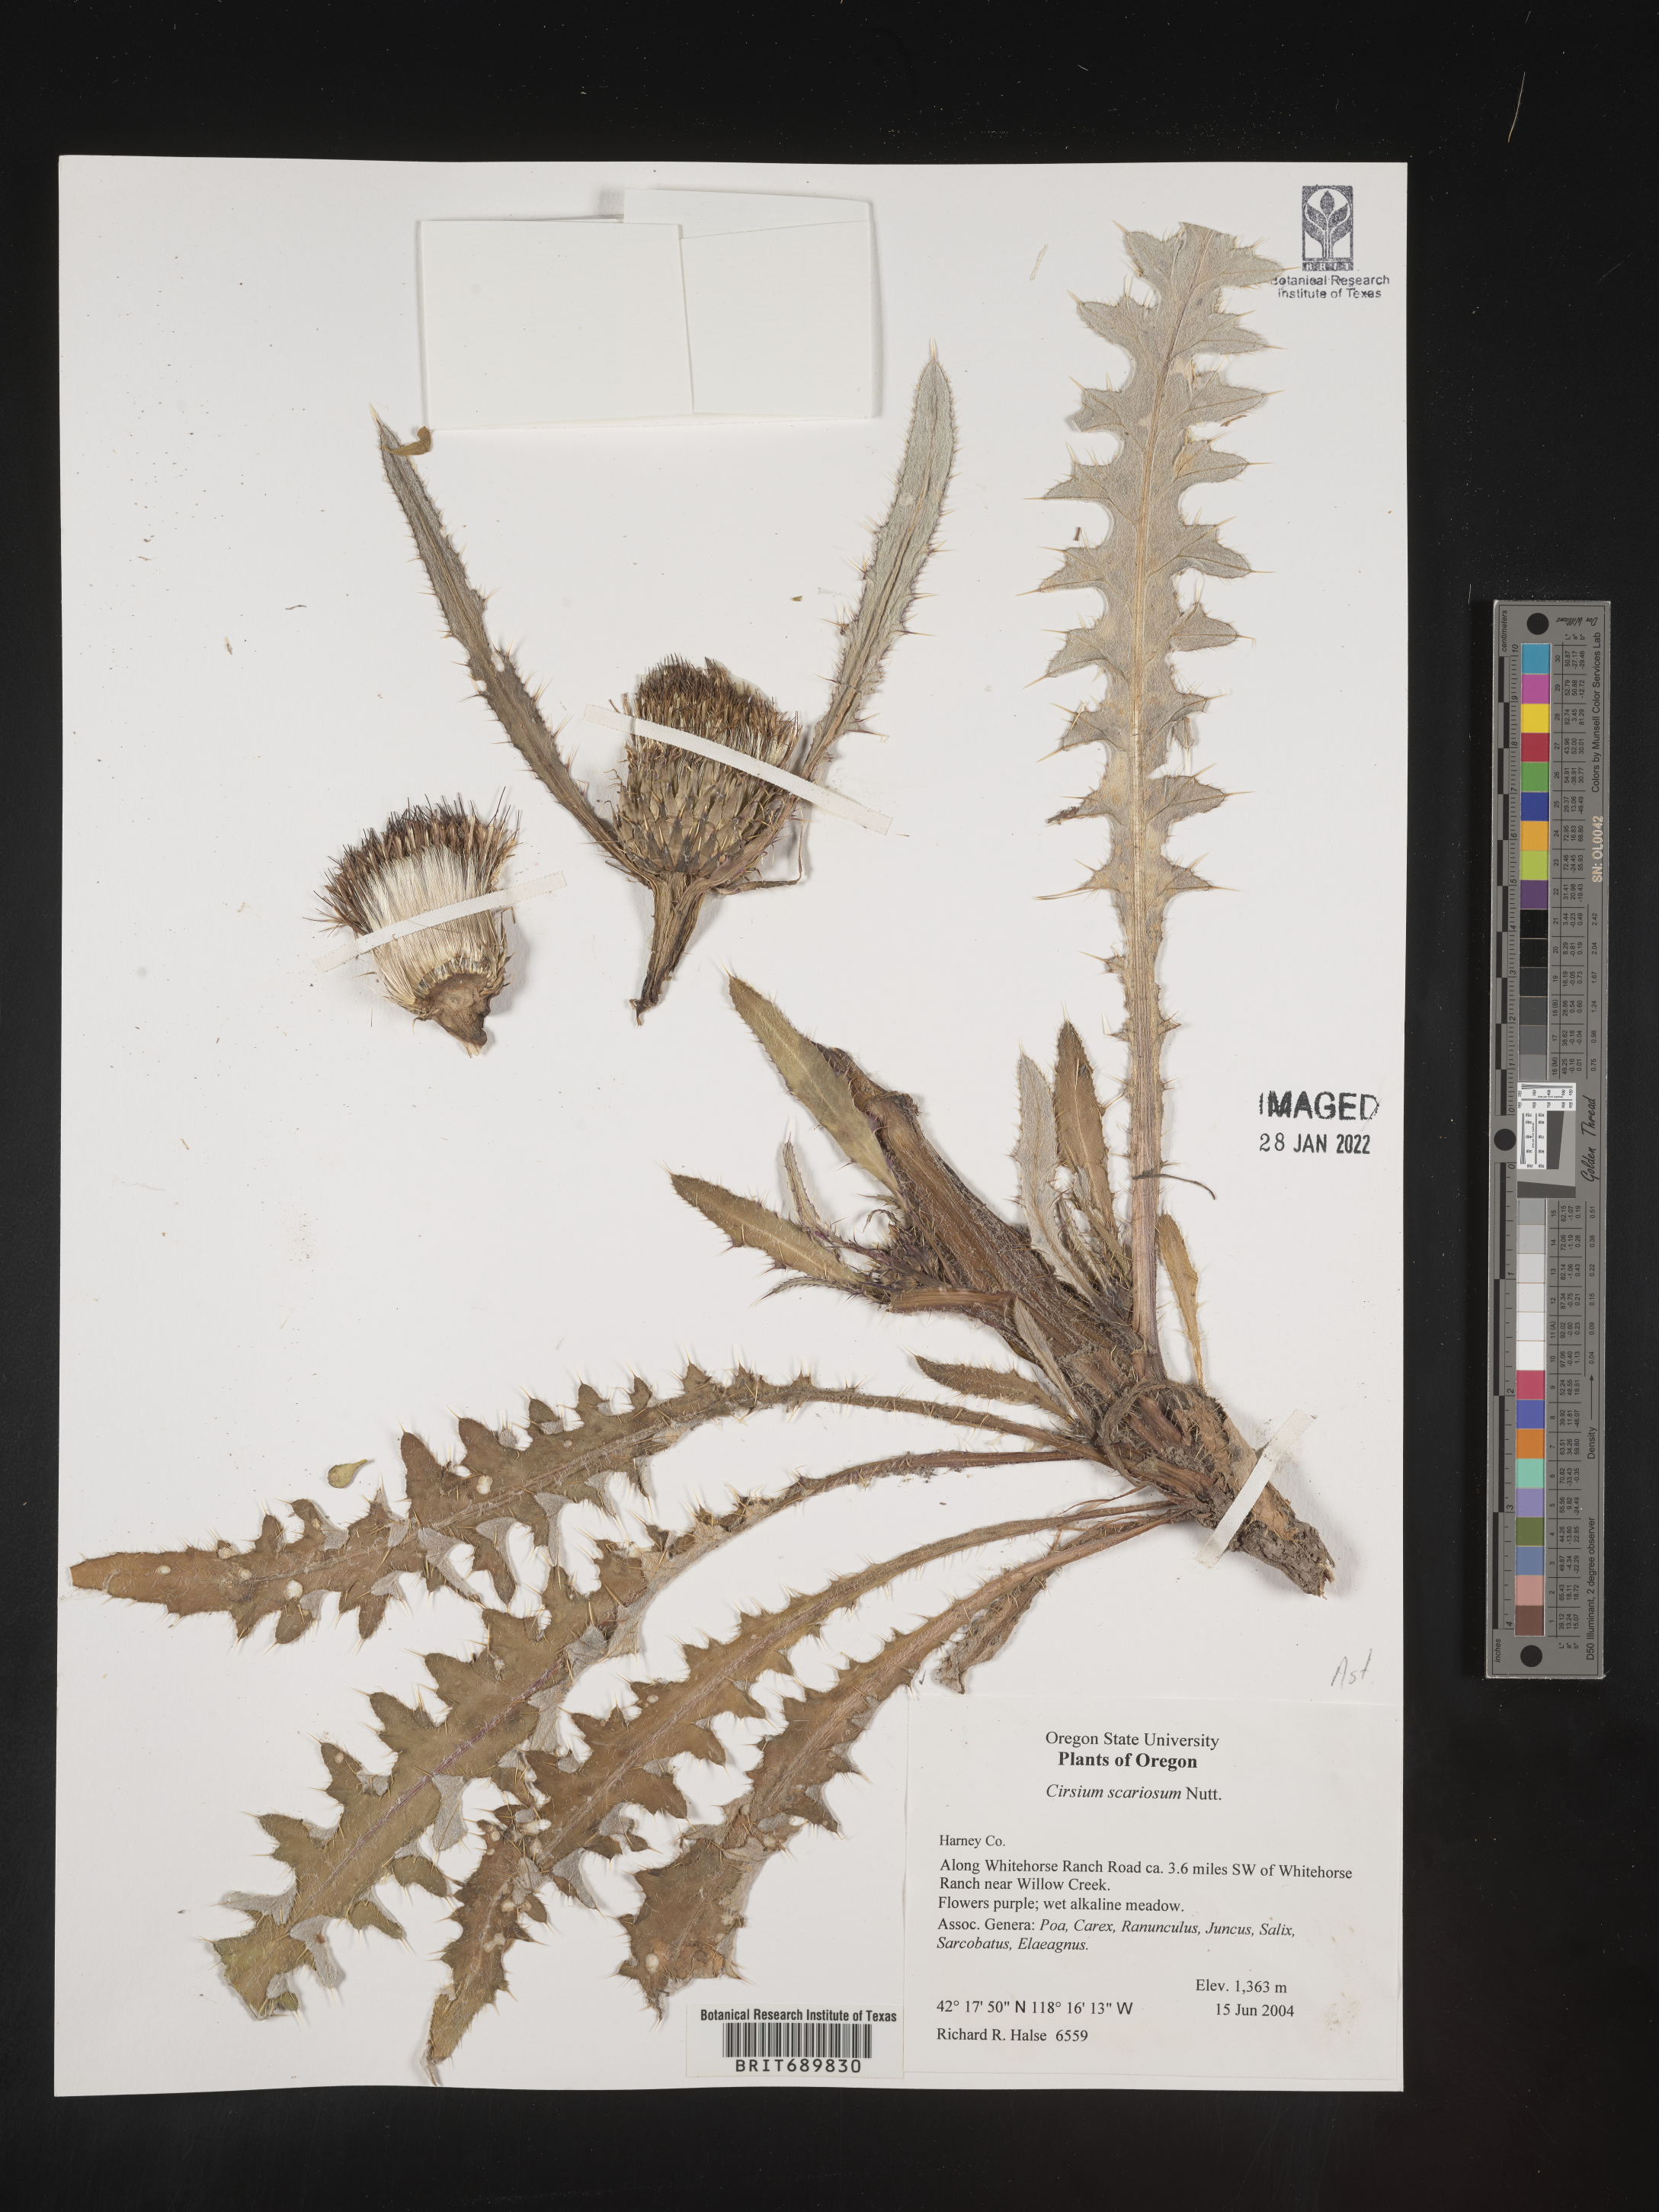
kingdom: Plantae
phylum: Tracheophyta
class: Magnoliopsida
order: Asterales
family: Asteraceae
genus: Cirsium
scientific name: Cirsium scariosum
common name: Meadow thistle
